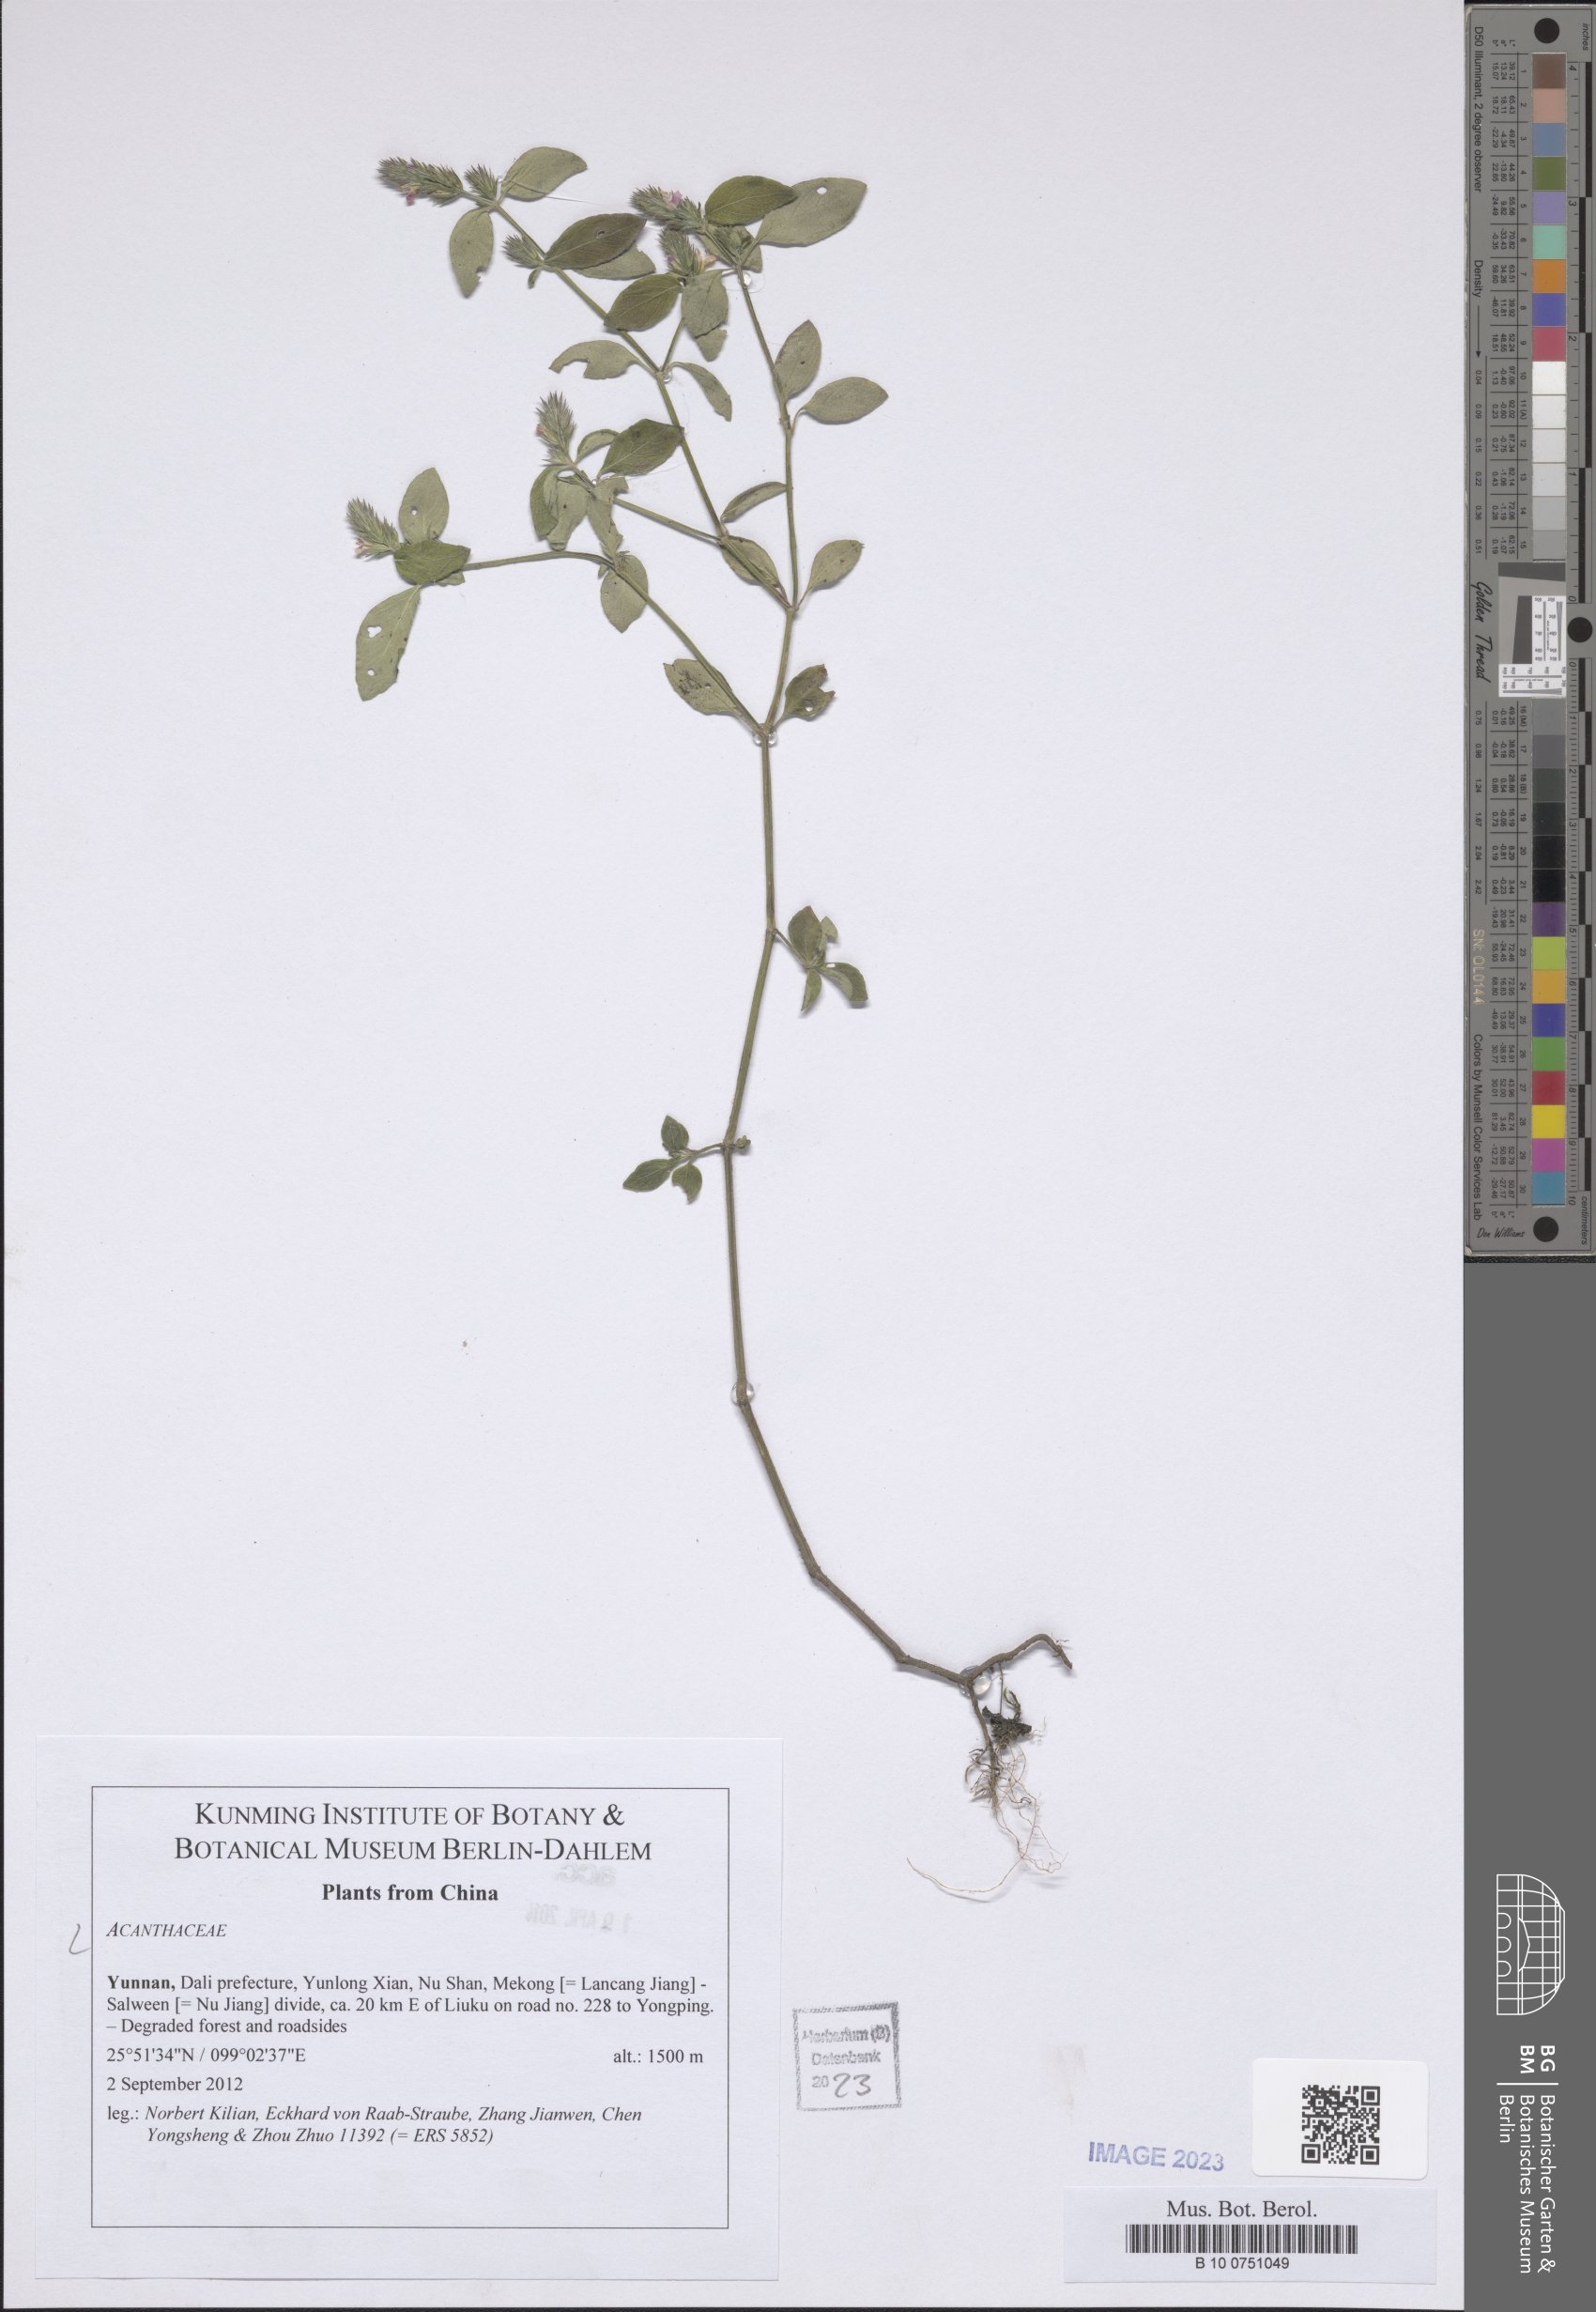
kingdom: Plantae
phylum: Tracheophyta
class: Magnoliopsida
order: Lamiales
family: Acanthaceae
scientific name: Acanthaceae
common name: Acanthaceae
